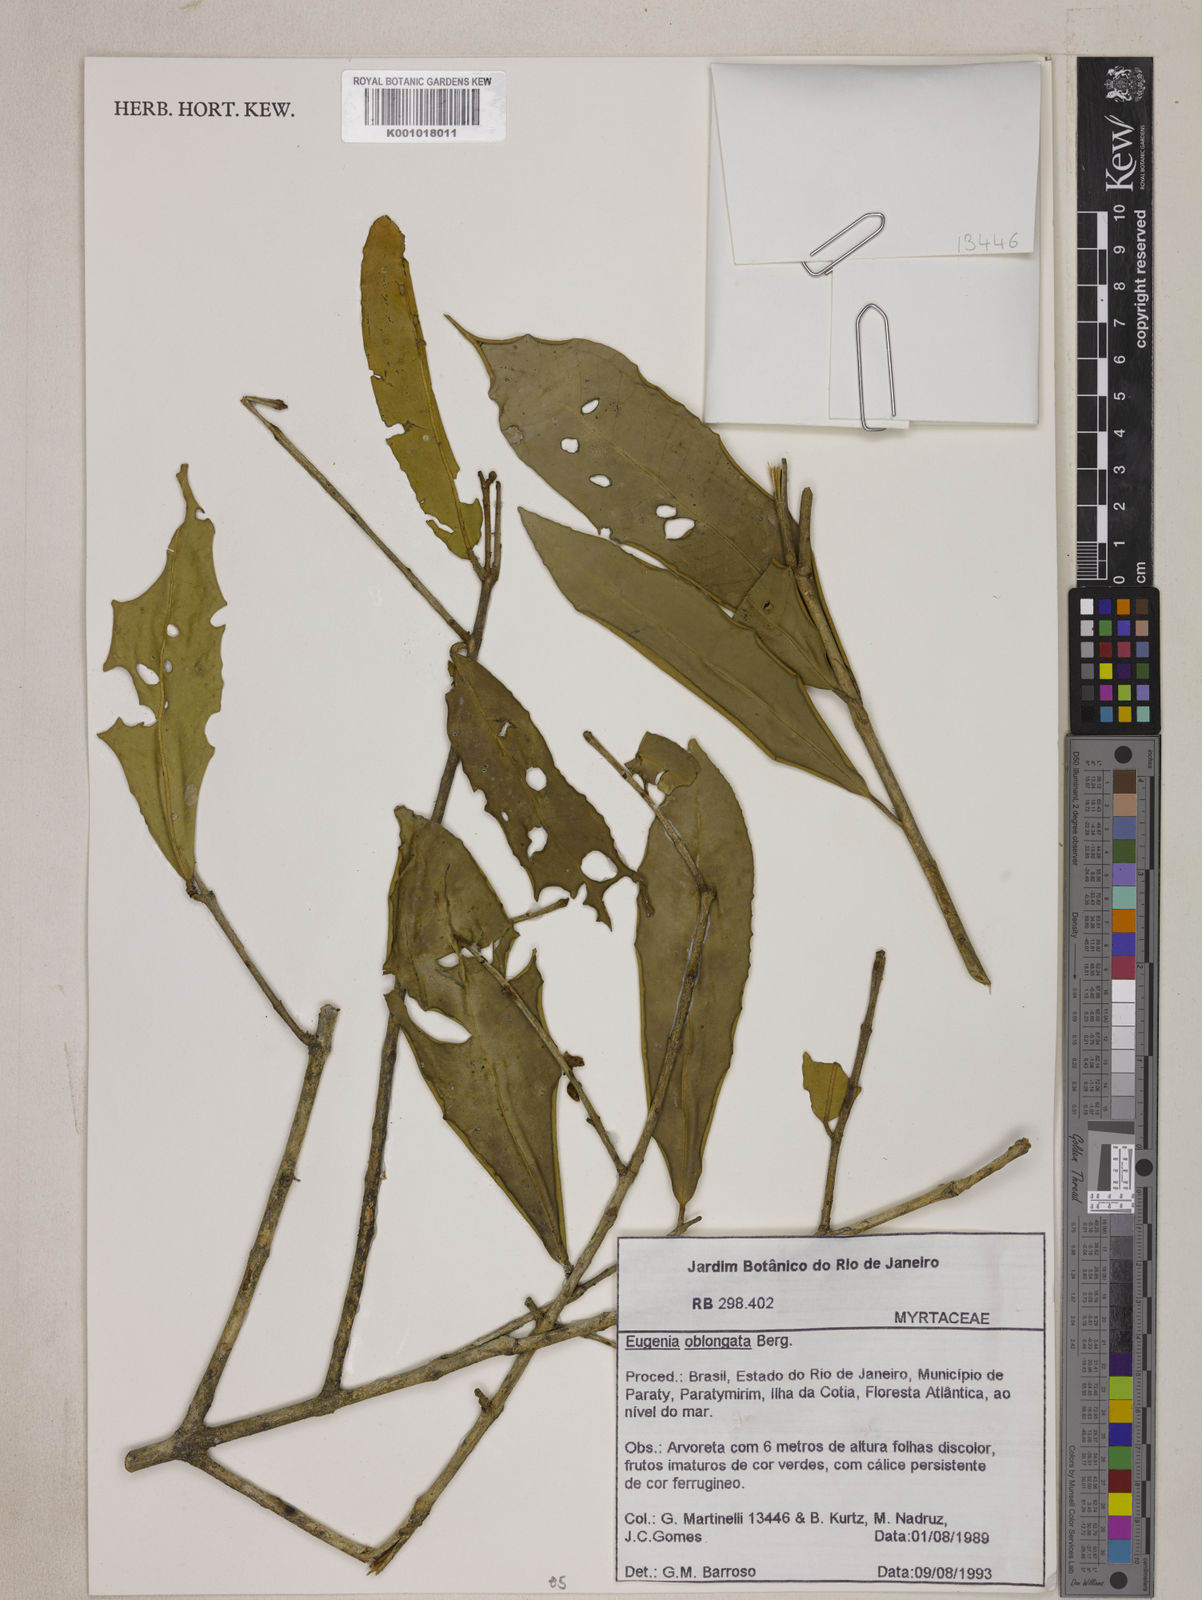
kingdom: Plantae
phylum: Tracheophyta
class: Magnoliopsida
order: Myrtales
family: Myrtaceae
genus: Eugenia
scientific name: Eugenia oblongata
